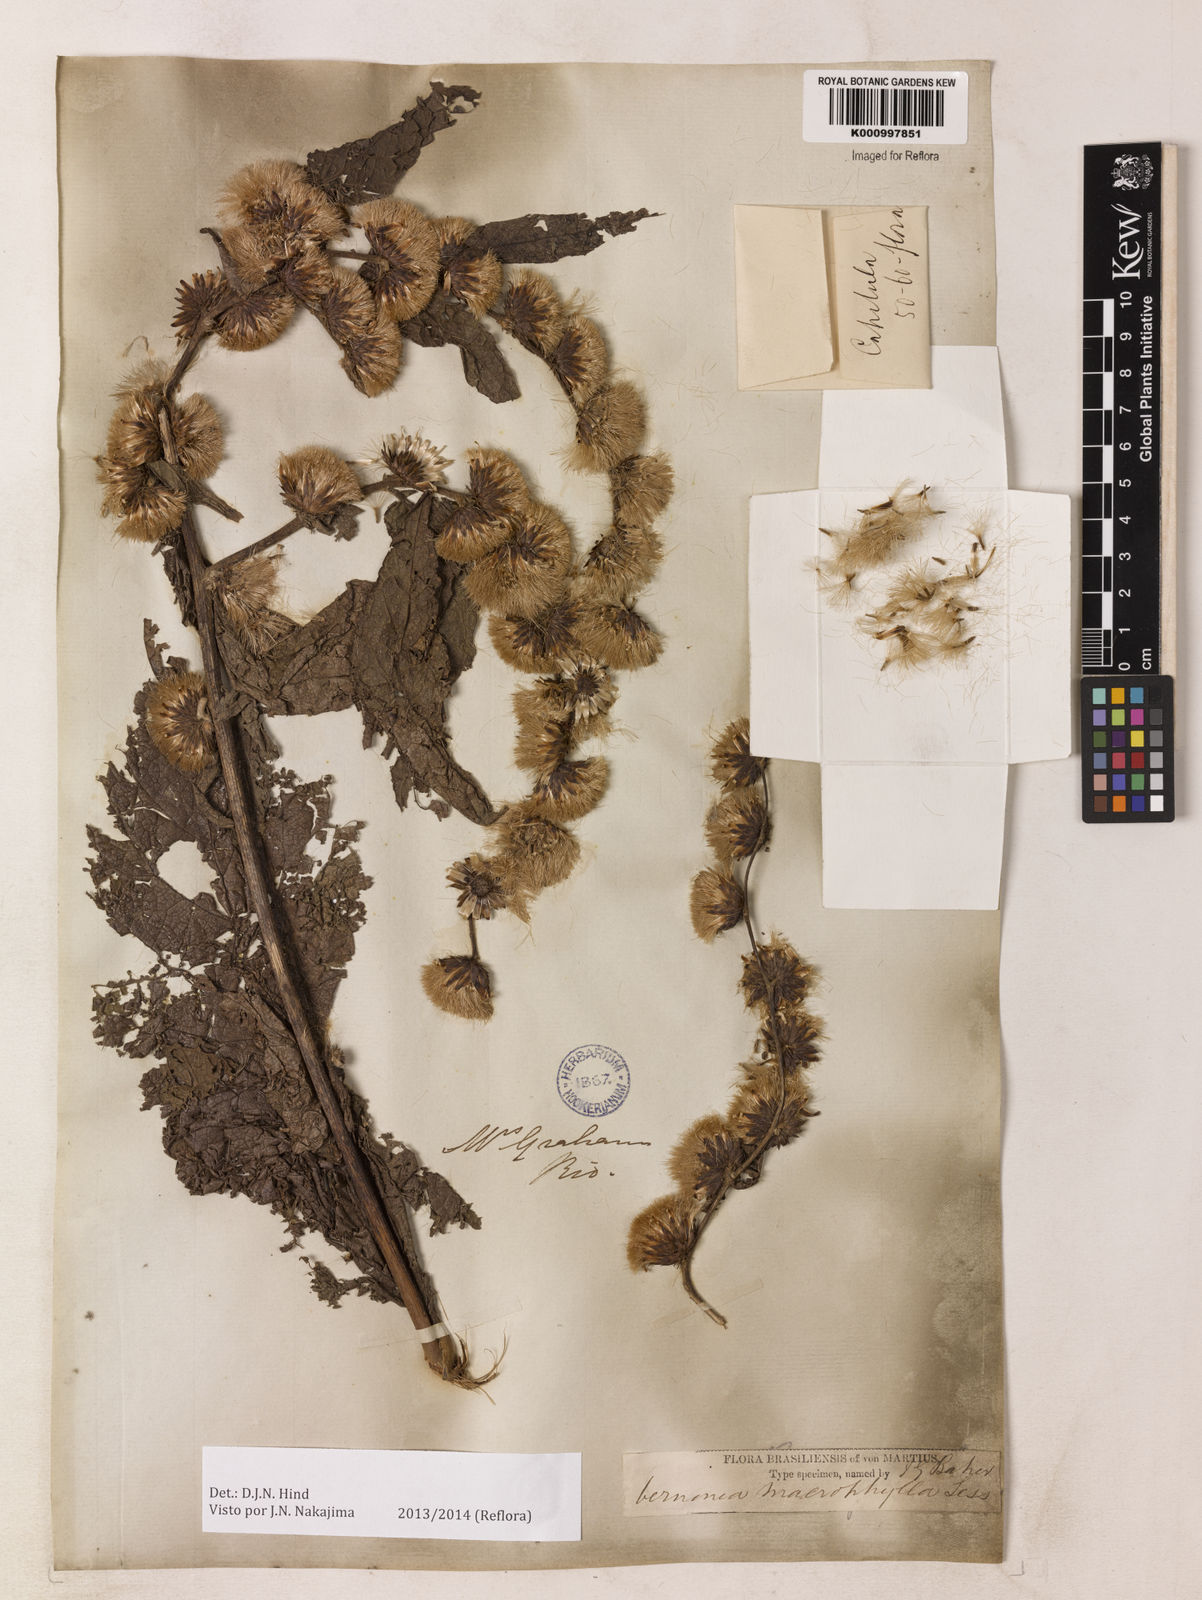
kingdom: Plantae
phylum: Tracheophyta
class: Magnoliopsida
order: Asterales
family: Asteraceae
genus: Lessingianthus
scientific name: Lessingianthus macrophyllus
